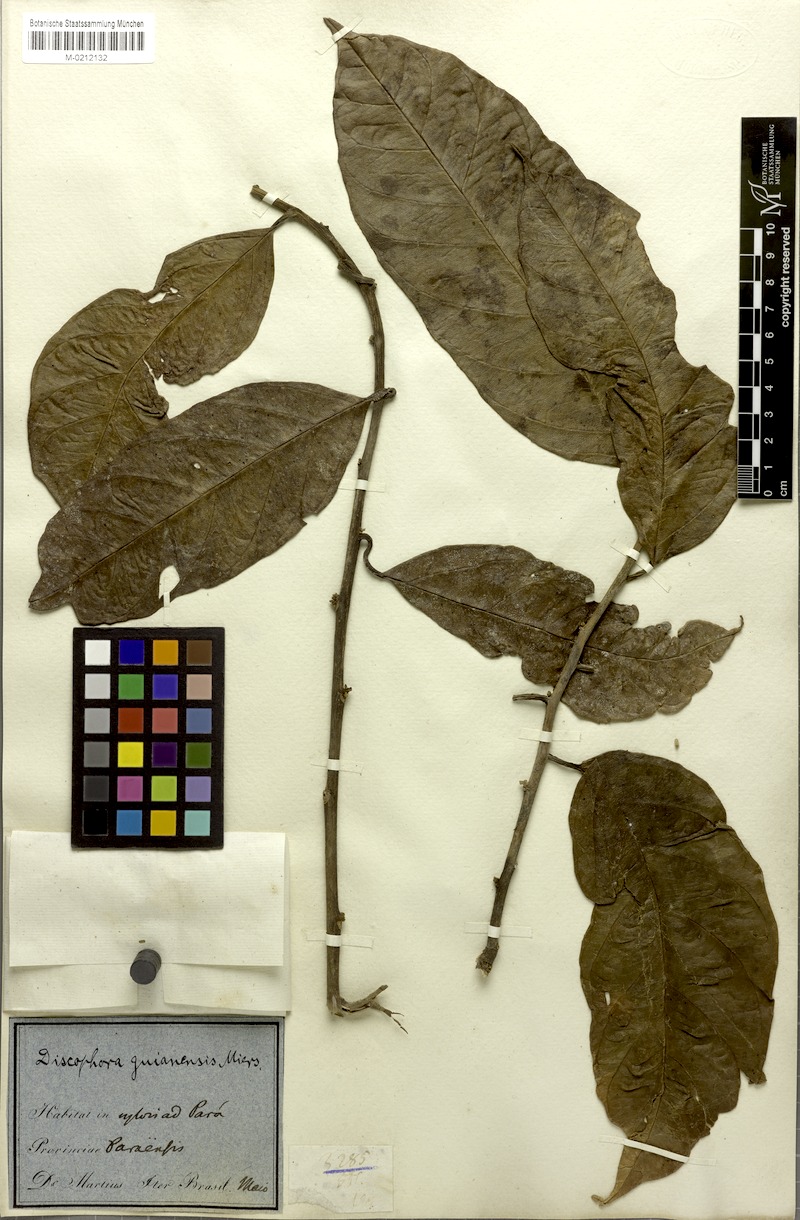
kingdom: Plantae
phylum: Tracheophyta
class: Magnoliopsida
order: Cardiopteridales
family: Stemonuraceae
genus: Discophora
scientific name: Discophora guianensis
